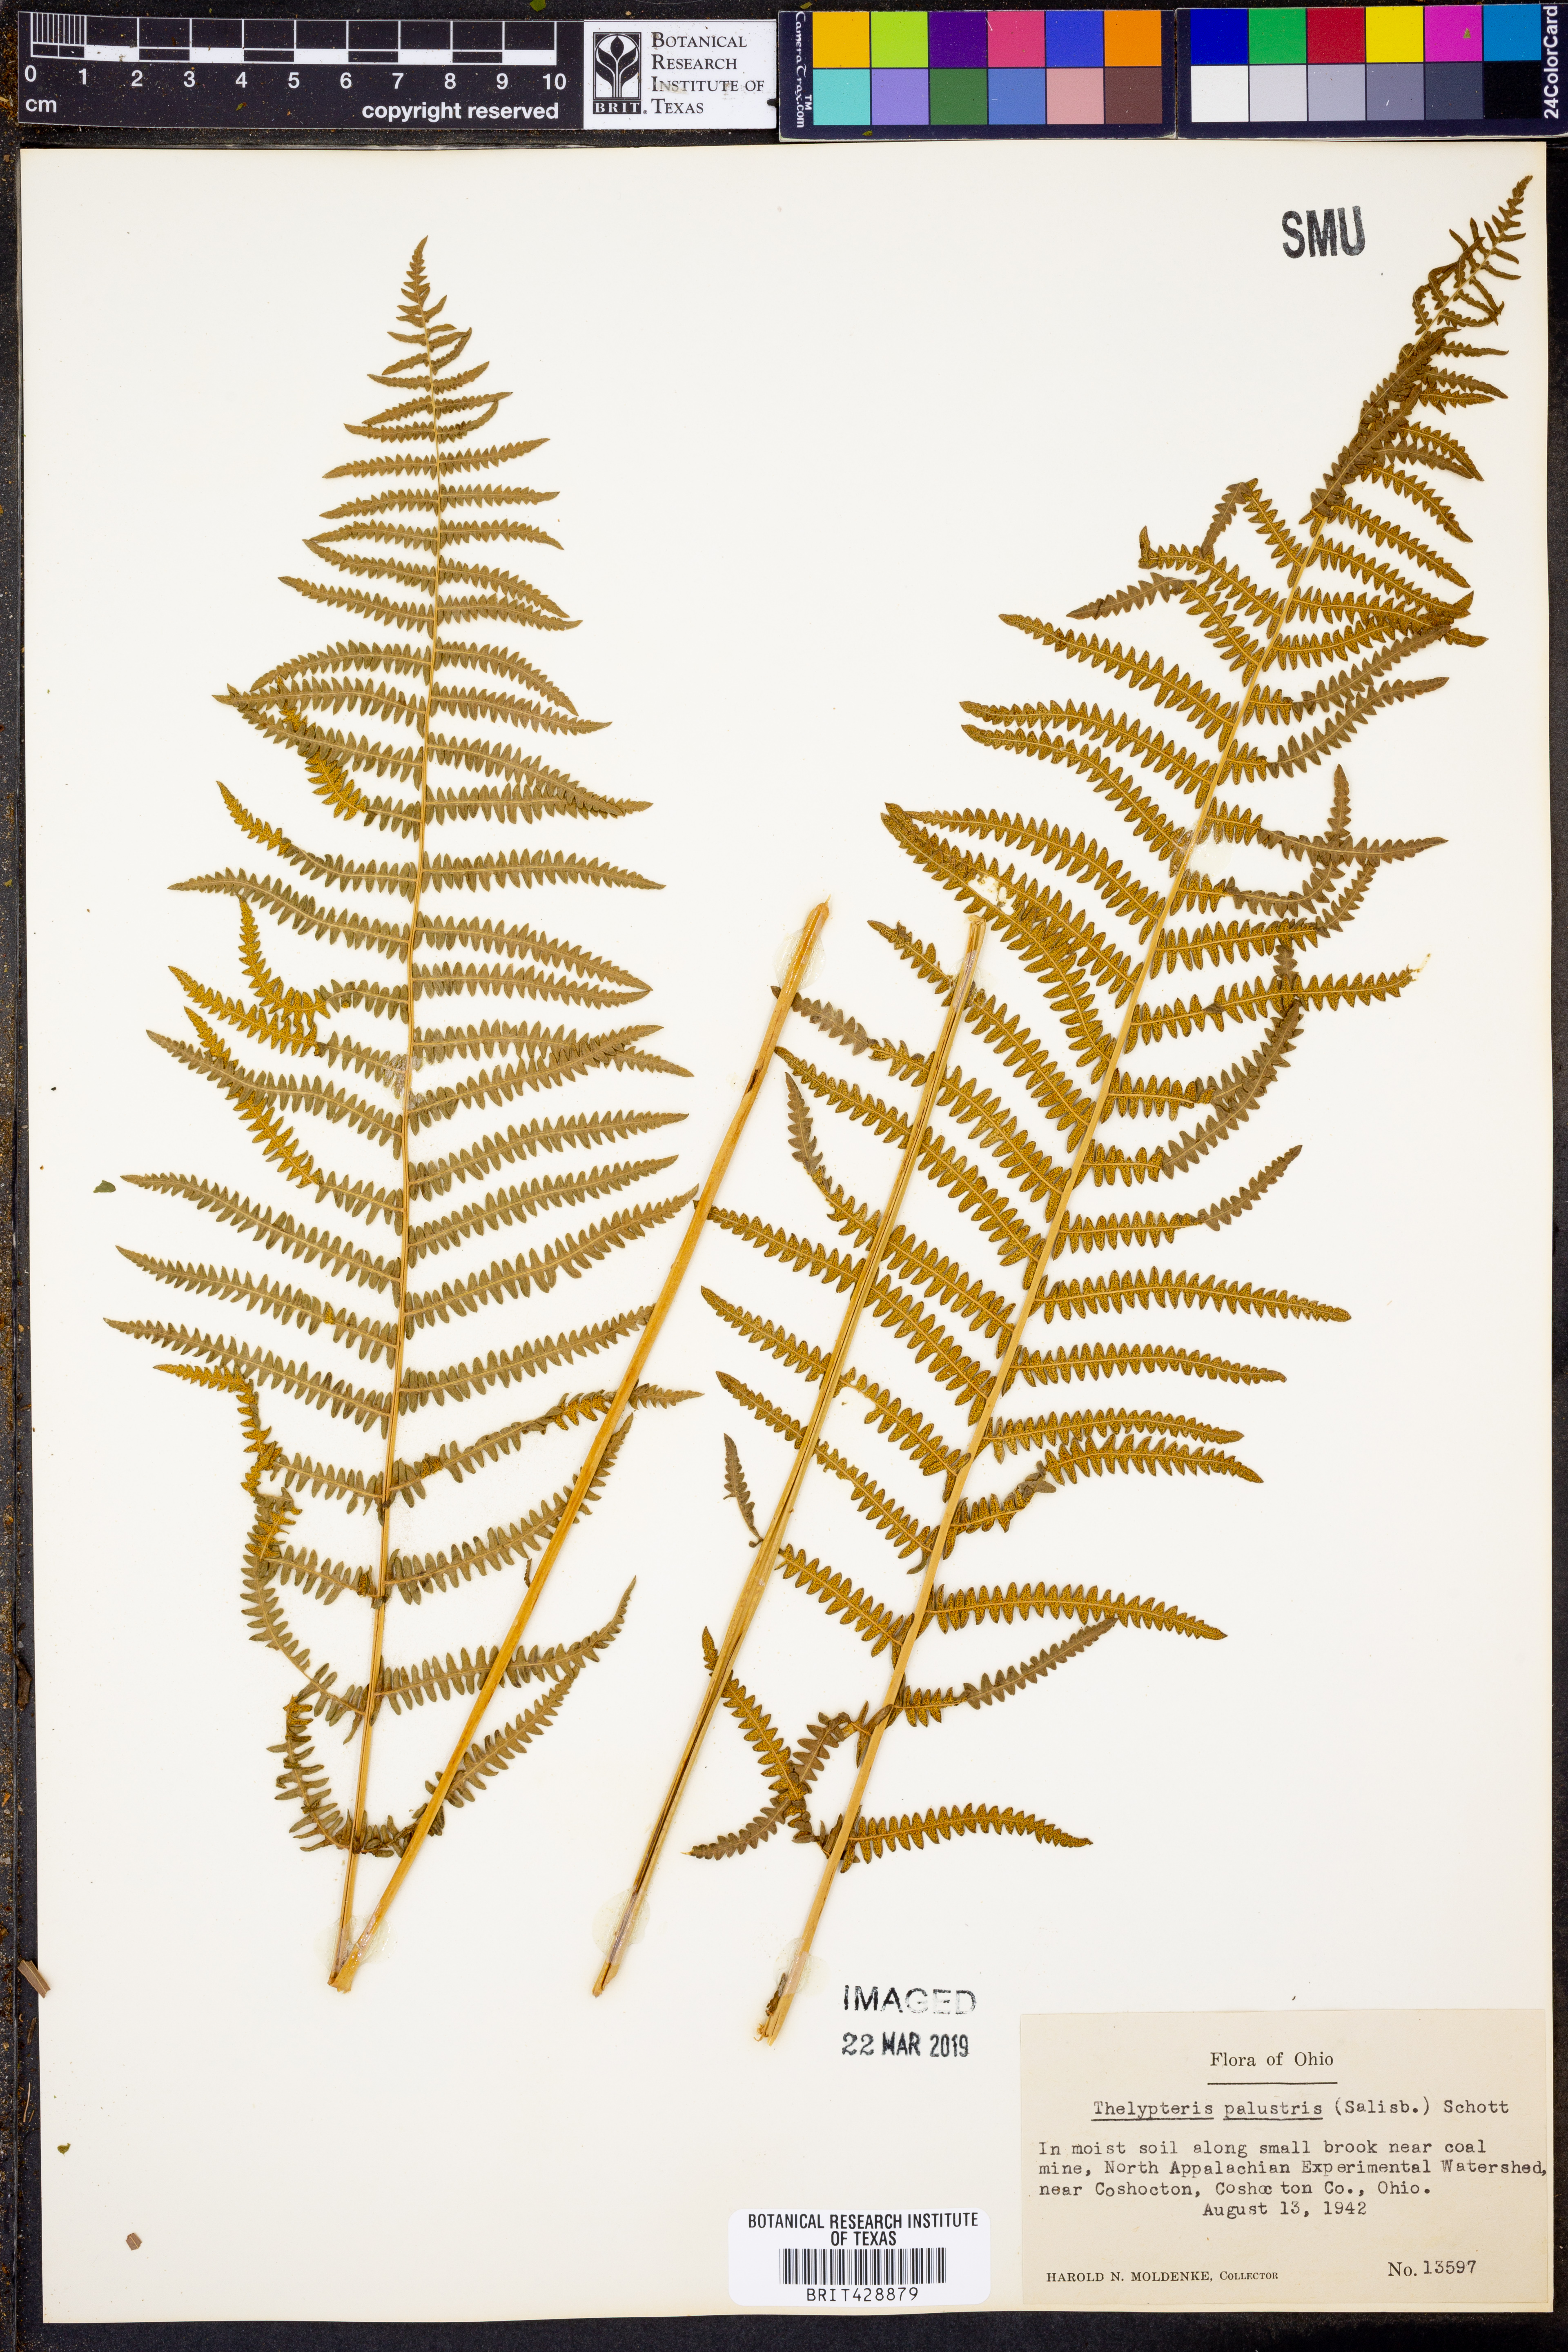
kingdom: Plantae
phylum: Tracheophyta
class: Polypodiopsida
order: Polypodiales
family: Thelypteridaceae
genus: Thelypteris
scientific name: Thelypteris palustris
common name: Marsh fern
